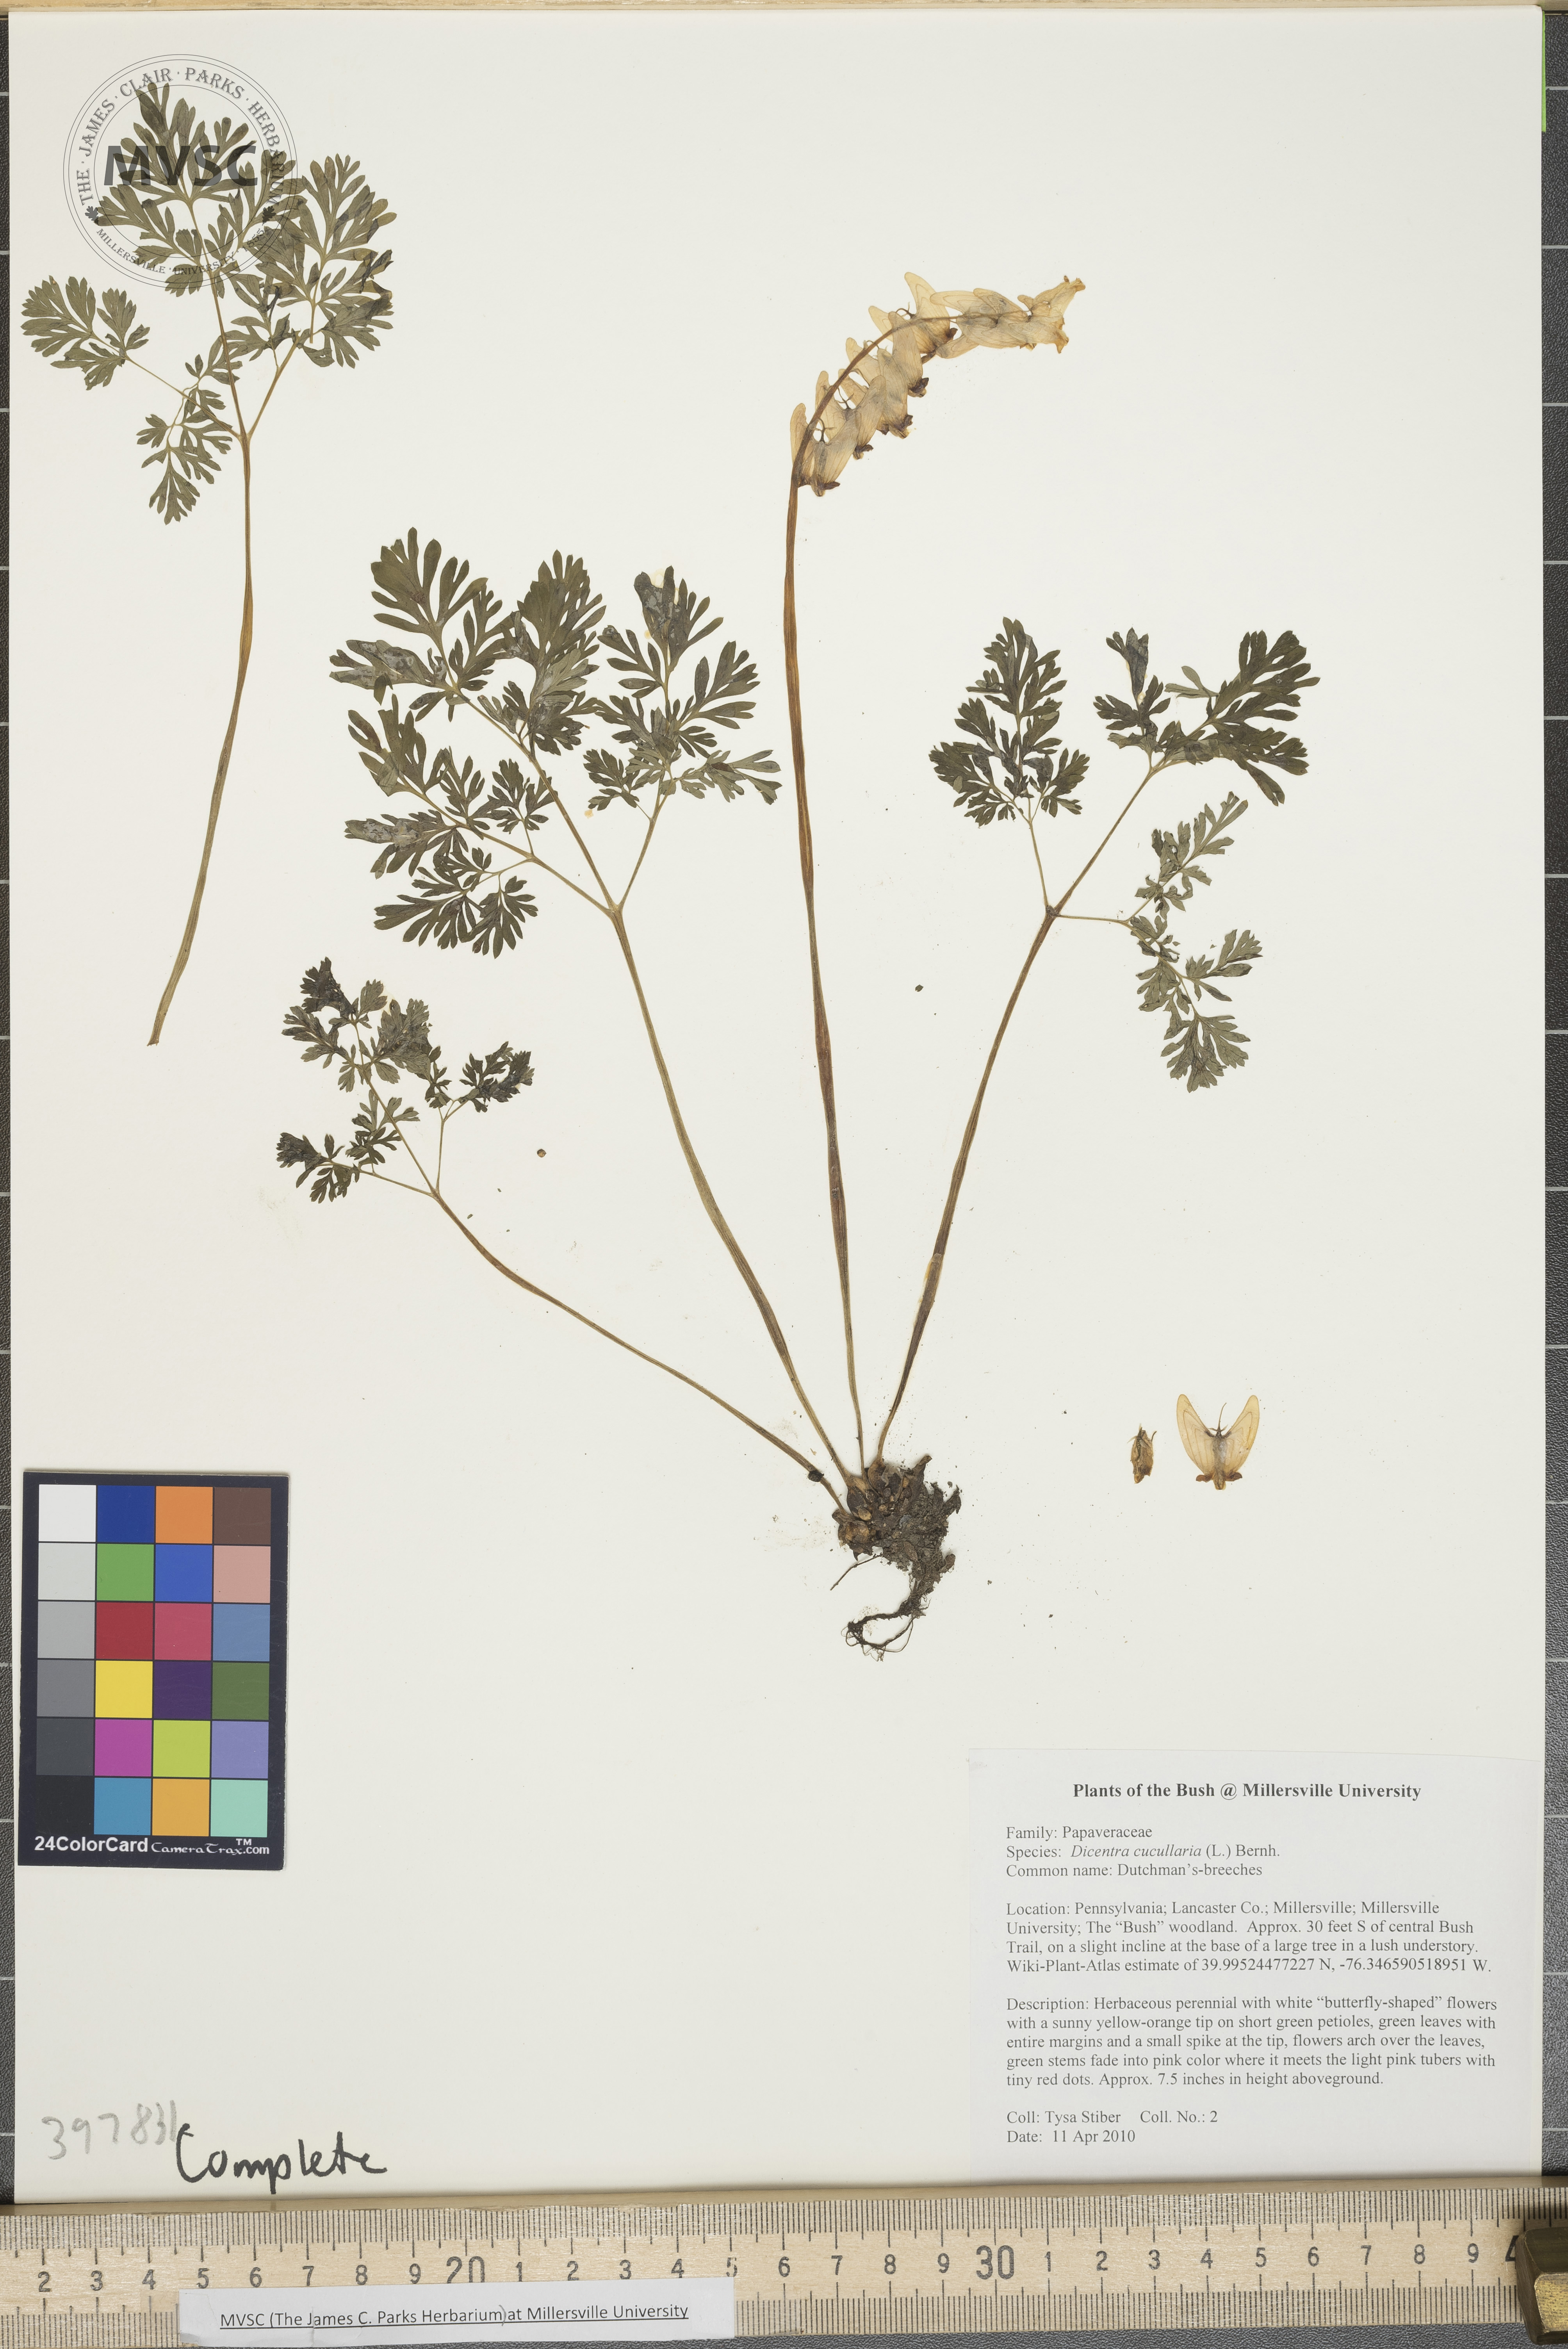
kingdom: Plantae
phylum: Tracheophyta
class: Magnoliopsida
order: Ranunculales
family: Papaveraceae
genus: Dicentra
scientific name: Dicentra cucullaria
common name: Dutchman's-breeches
